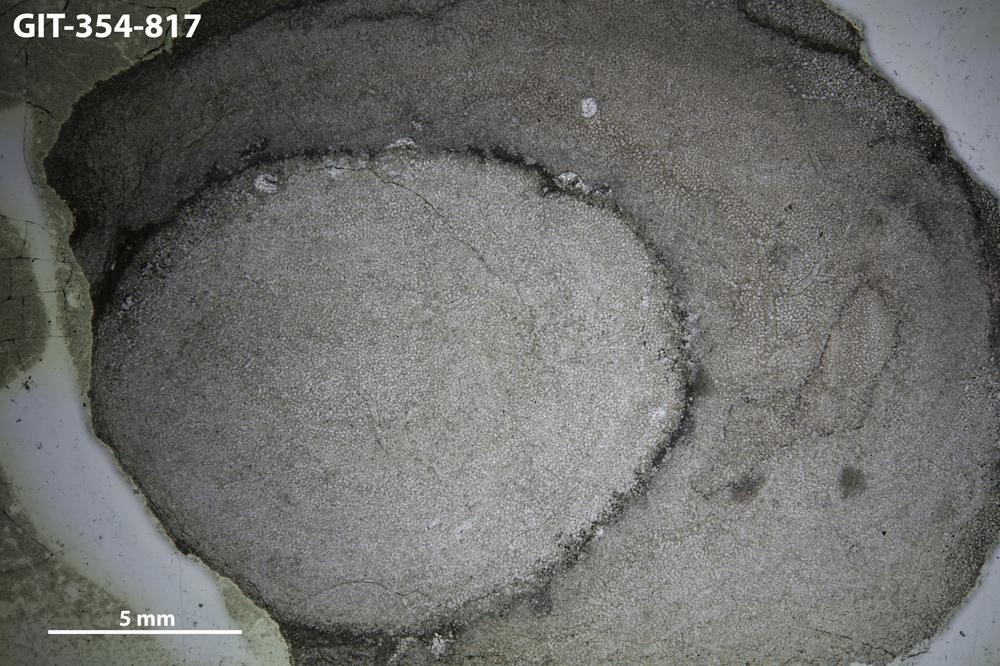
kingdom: Animalia
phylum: Porifera
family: Densastromatidae
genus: Densastroma
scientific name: Densastroma
